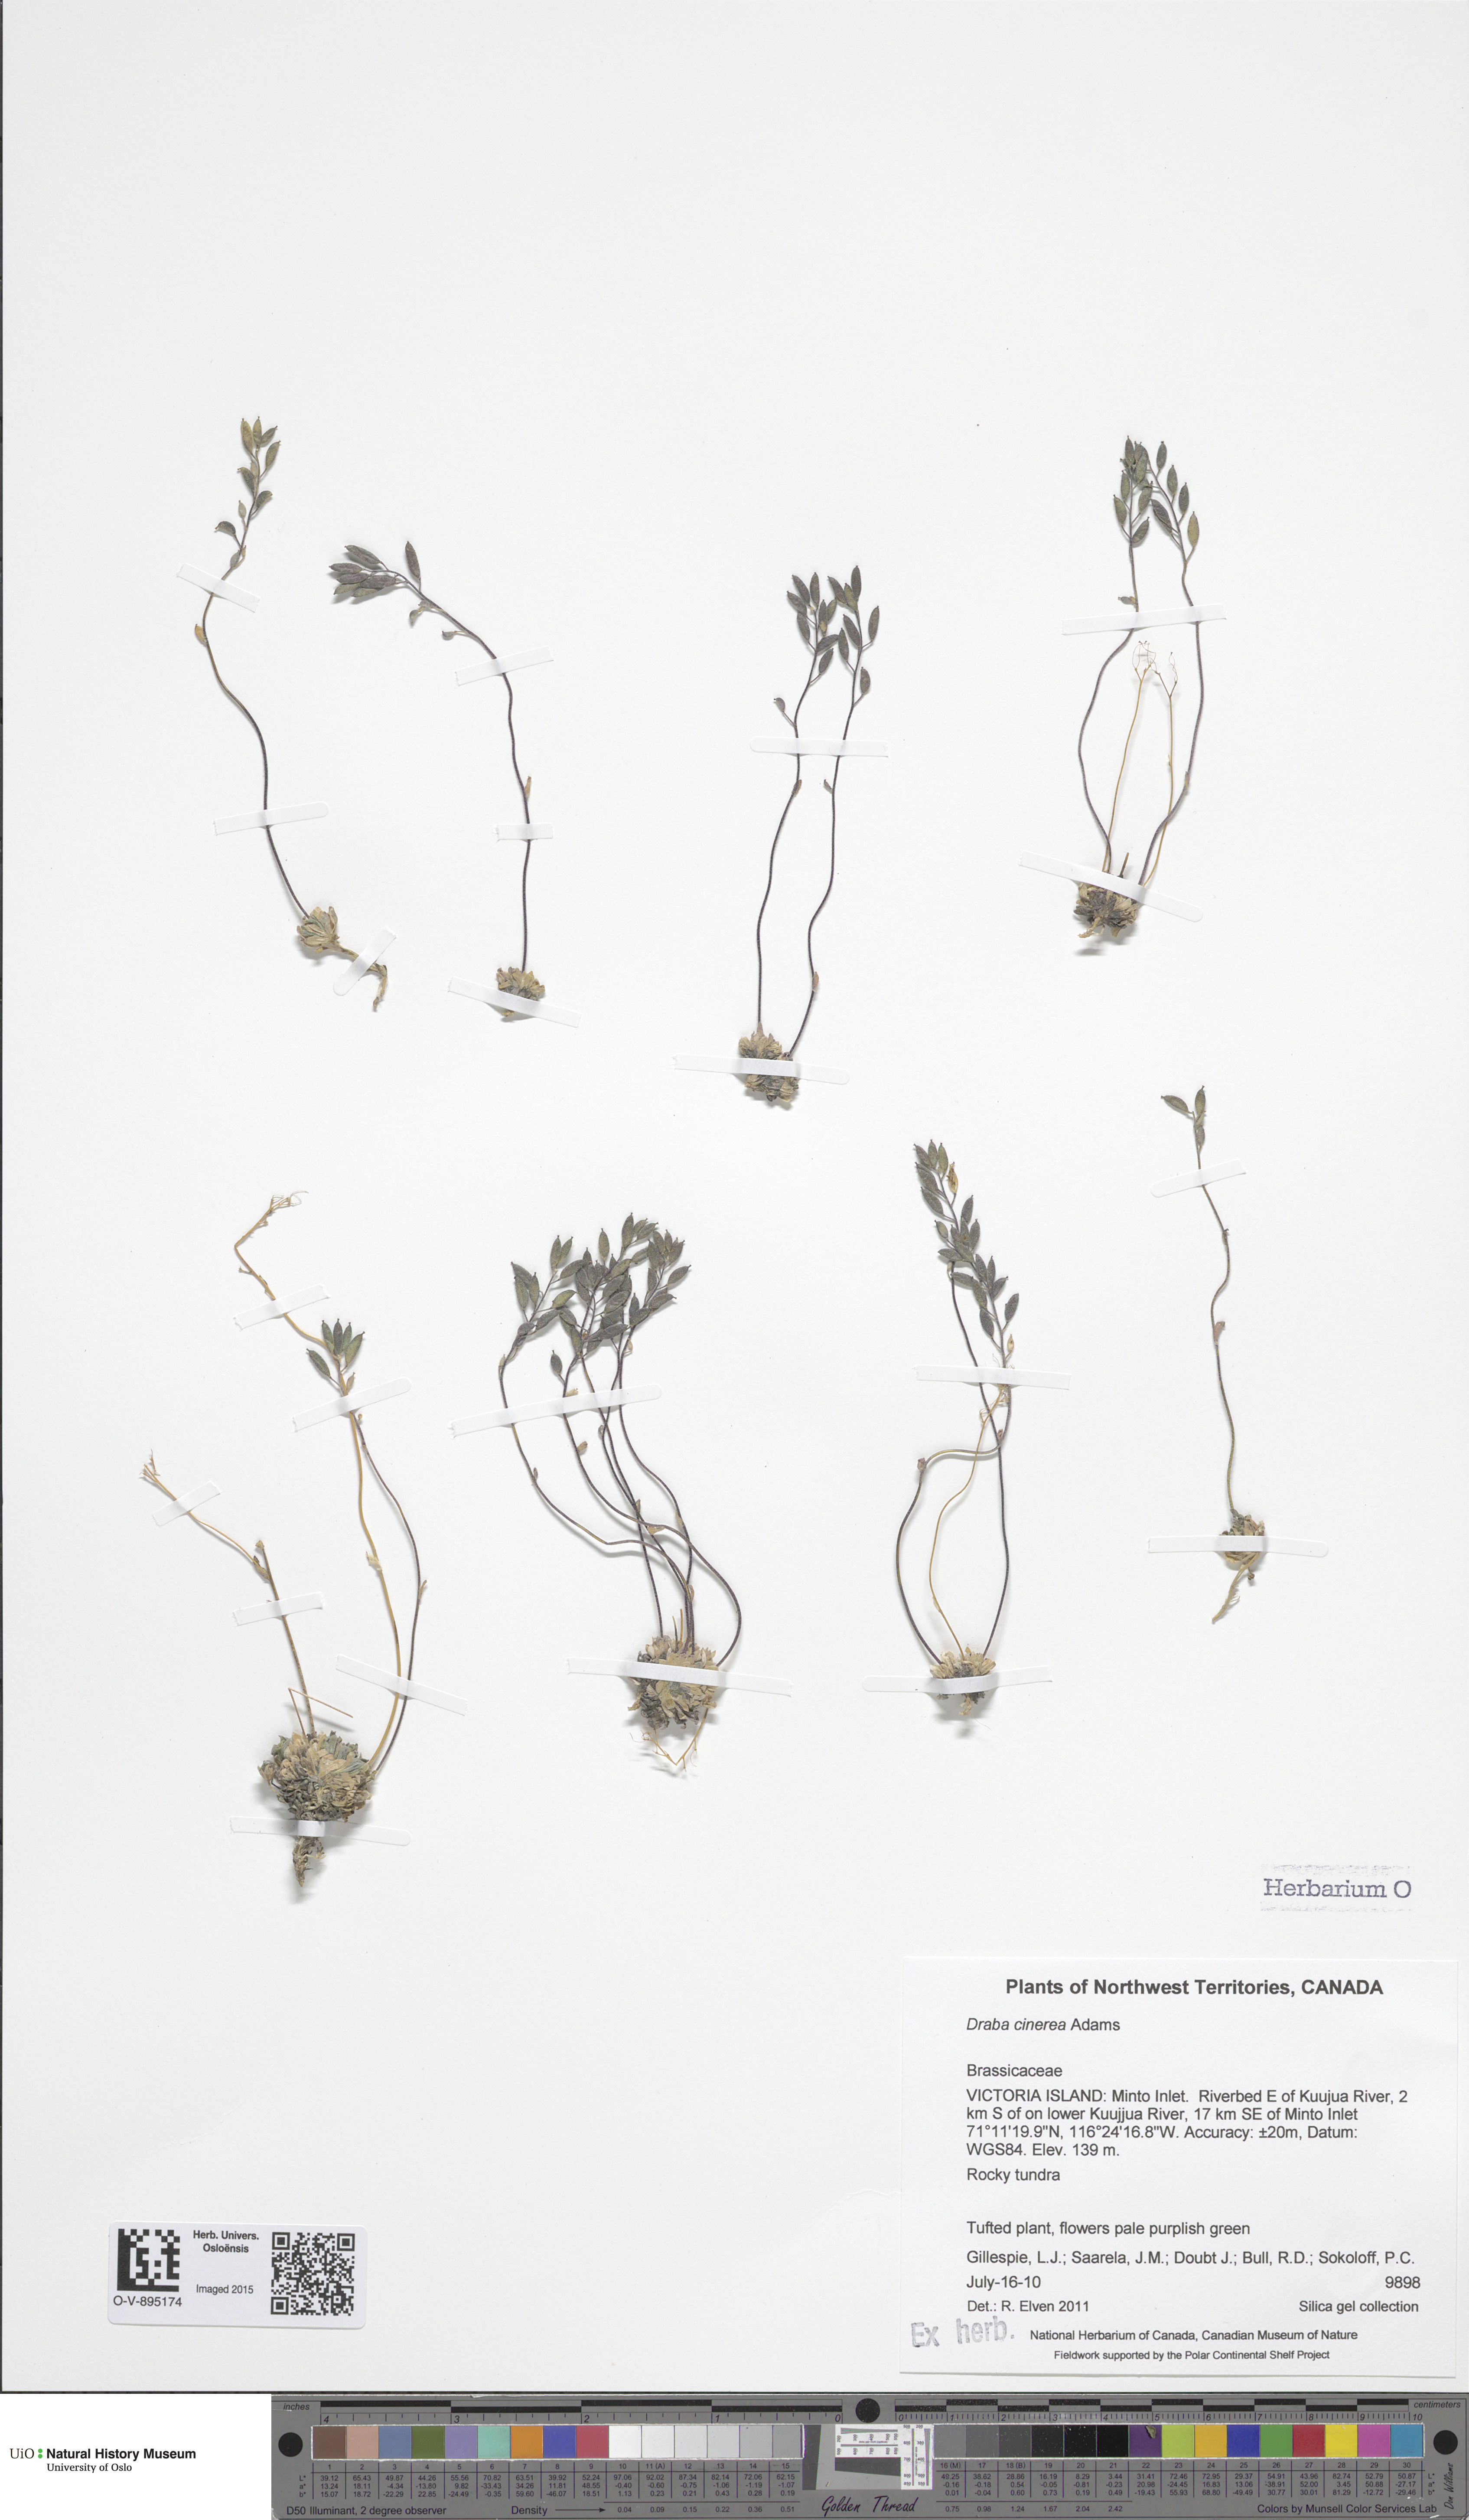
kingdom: Plantae
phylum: Tracheophyta
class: Magnoliopsida
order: Brassicales
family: Brassicaceae
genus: Draba
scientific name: Draba cinerea
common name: Ash-coloured whitlow-grass
